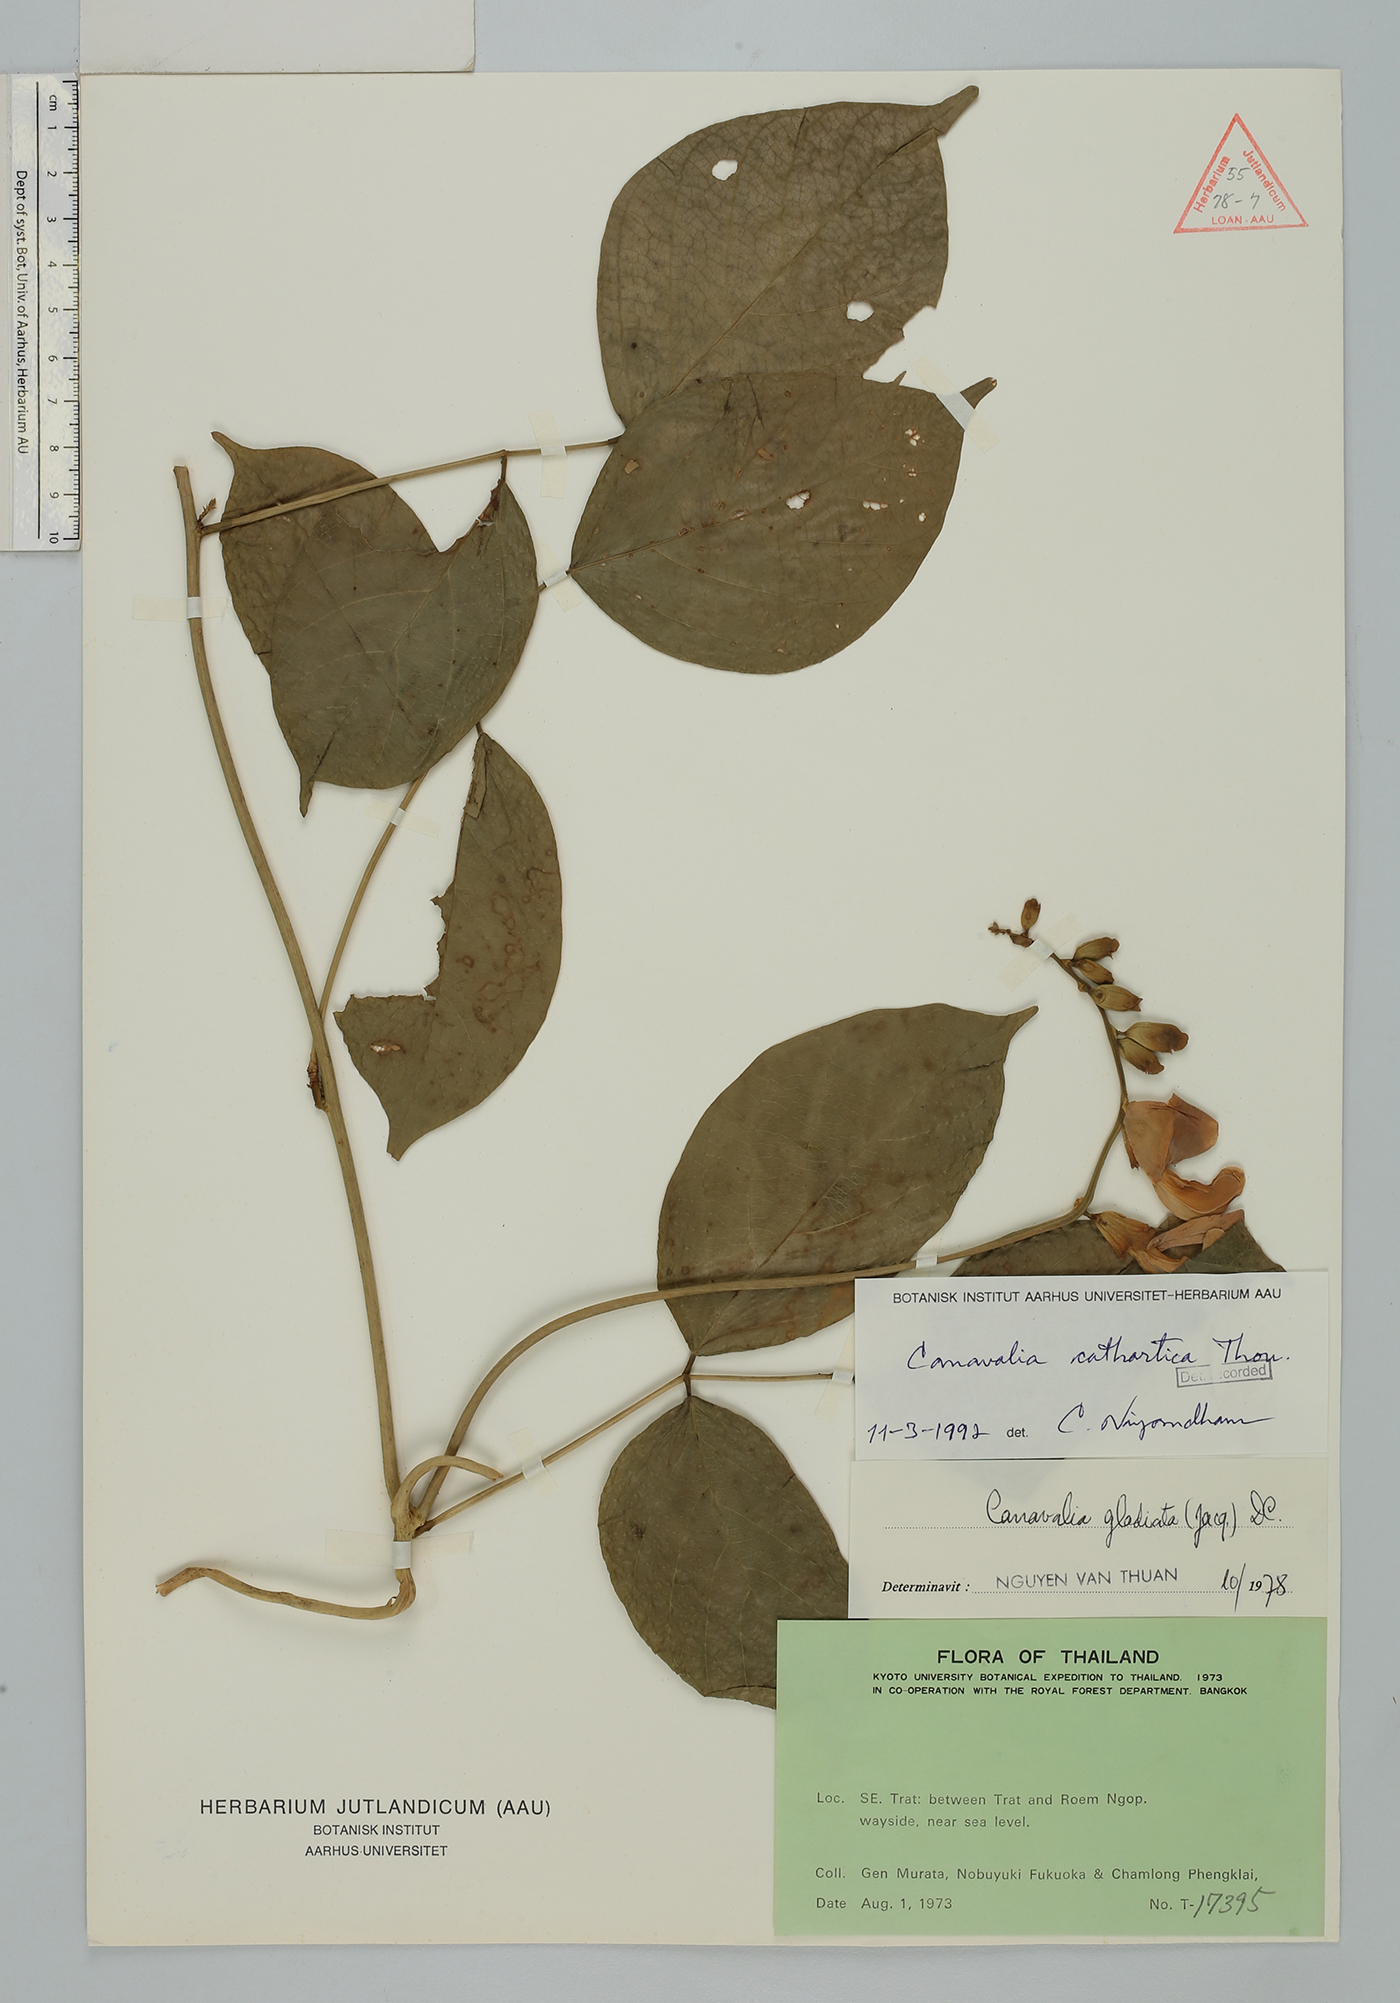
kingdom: Plantae
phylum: Tracheophyta
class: Magnoliopsida
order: Fabales
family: Fabaceae
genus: Canavalia
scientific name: Canavalia cathartica
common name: Maunaloa
